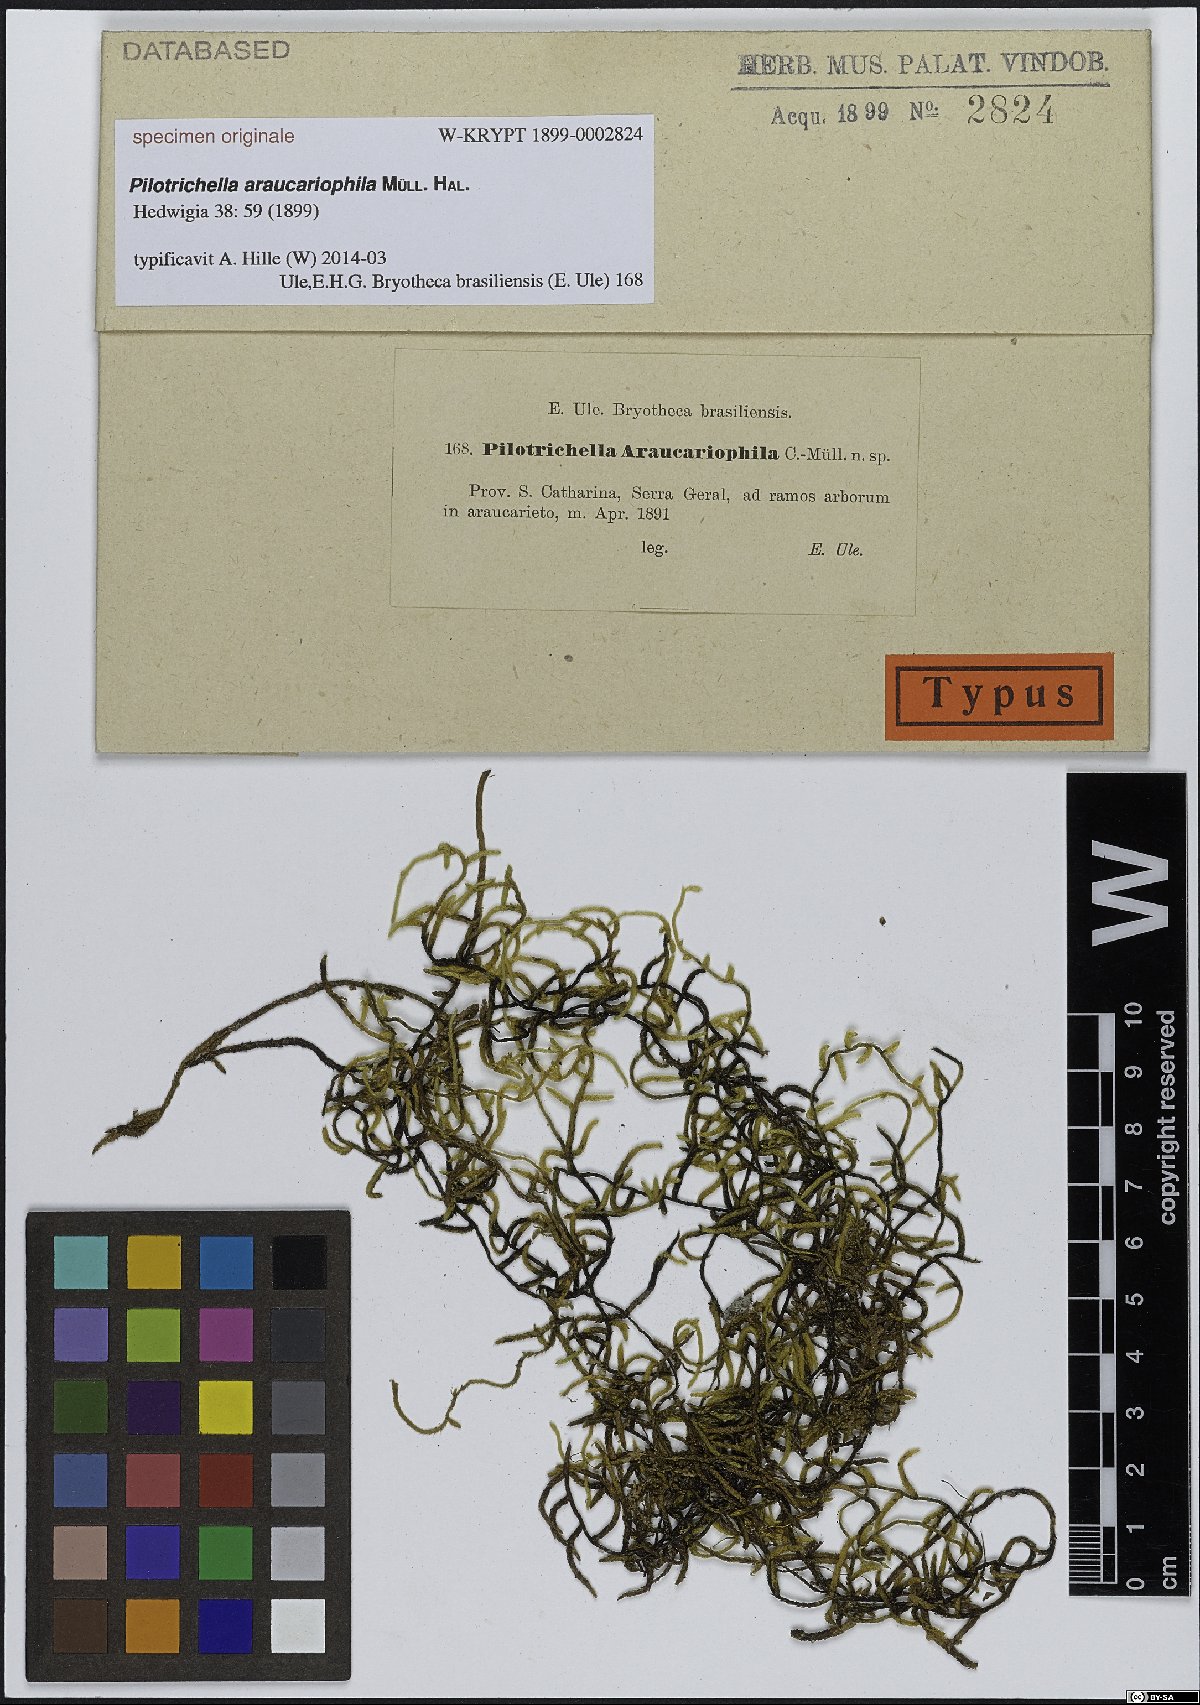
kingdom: Plantae
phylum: Bryophyta
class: Bryopsida
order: Hypnales
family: Lembophyllaceae
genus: Pilotrichella
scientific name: Pilotrichella
